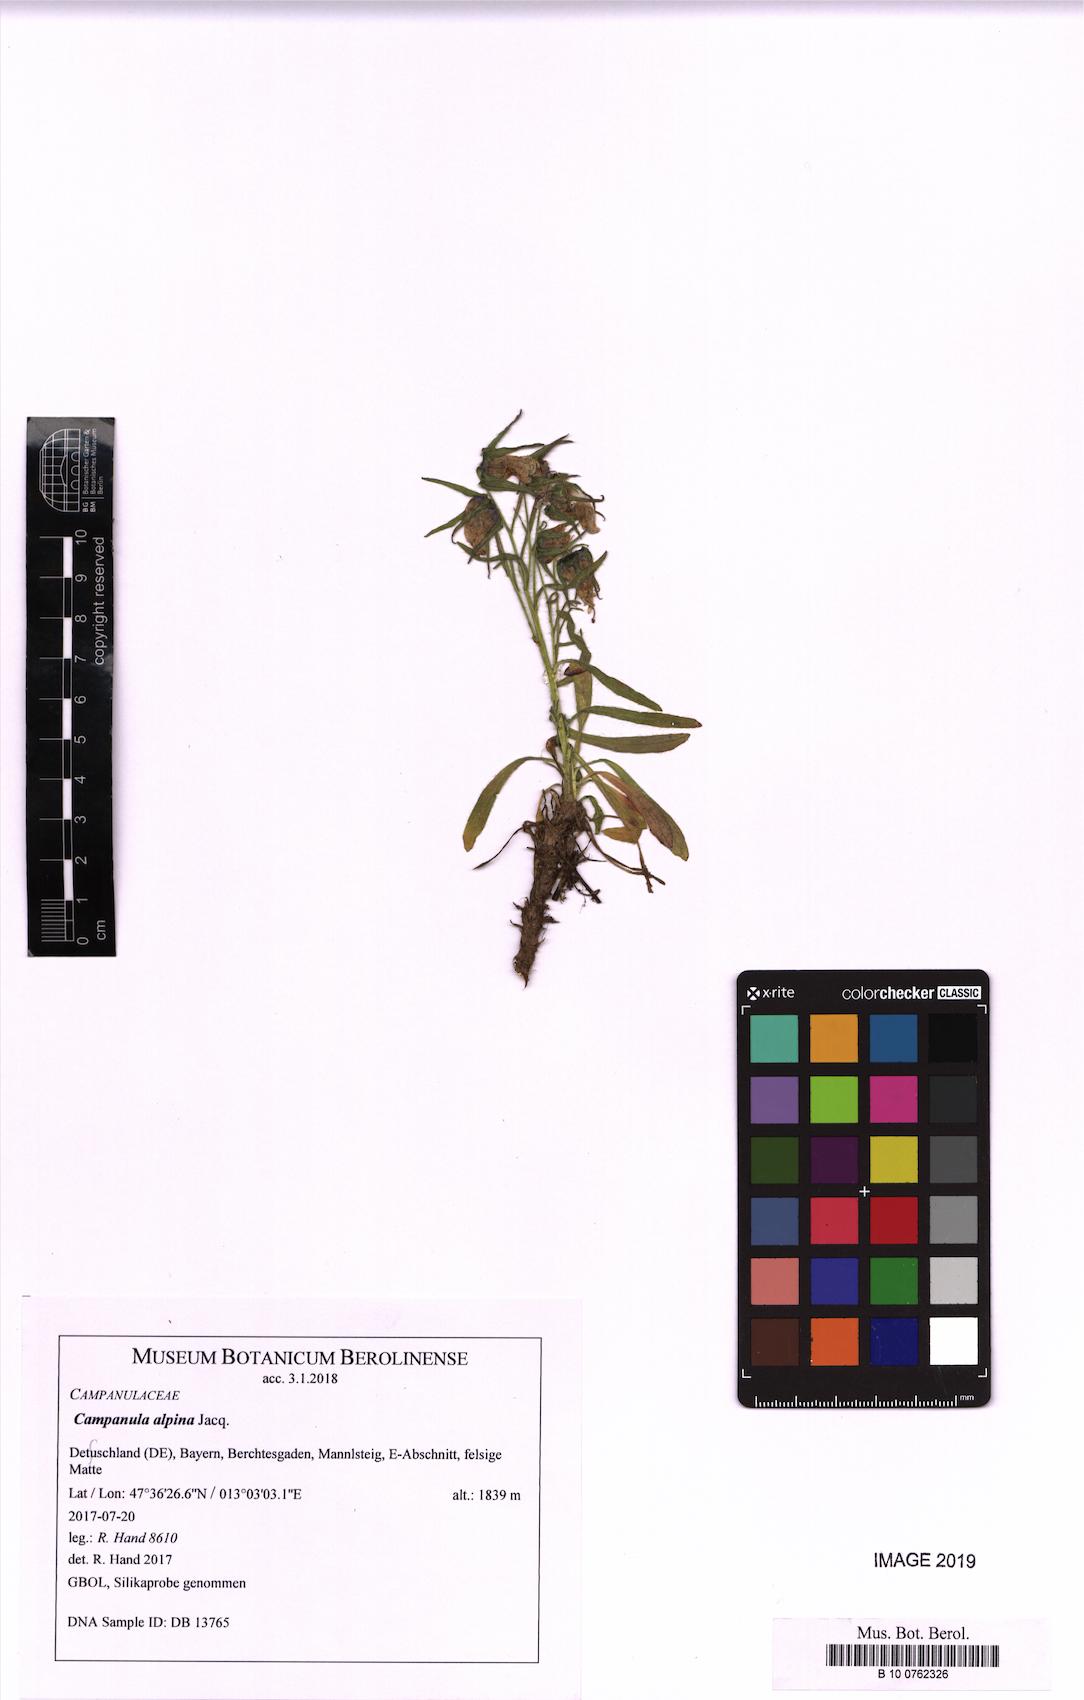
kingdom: Plantae
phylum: Tracheophyta
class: Magnoliopsida
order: Asterales
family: Campanulaceae
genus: Campanula
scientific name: Campanula alpina
